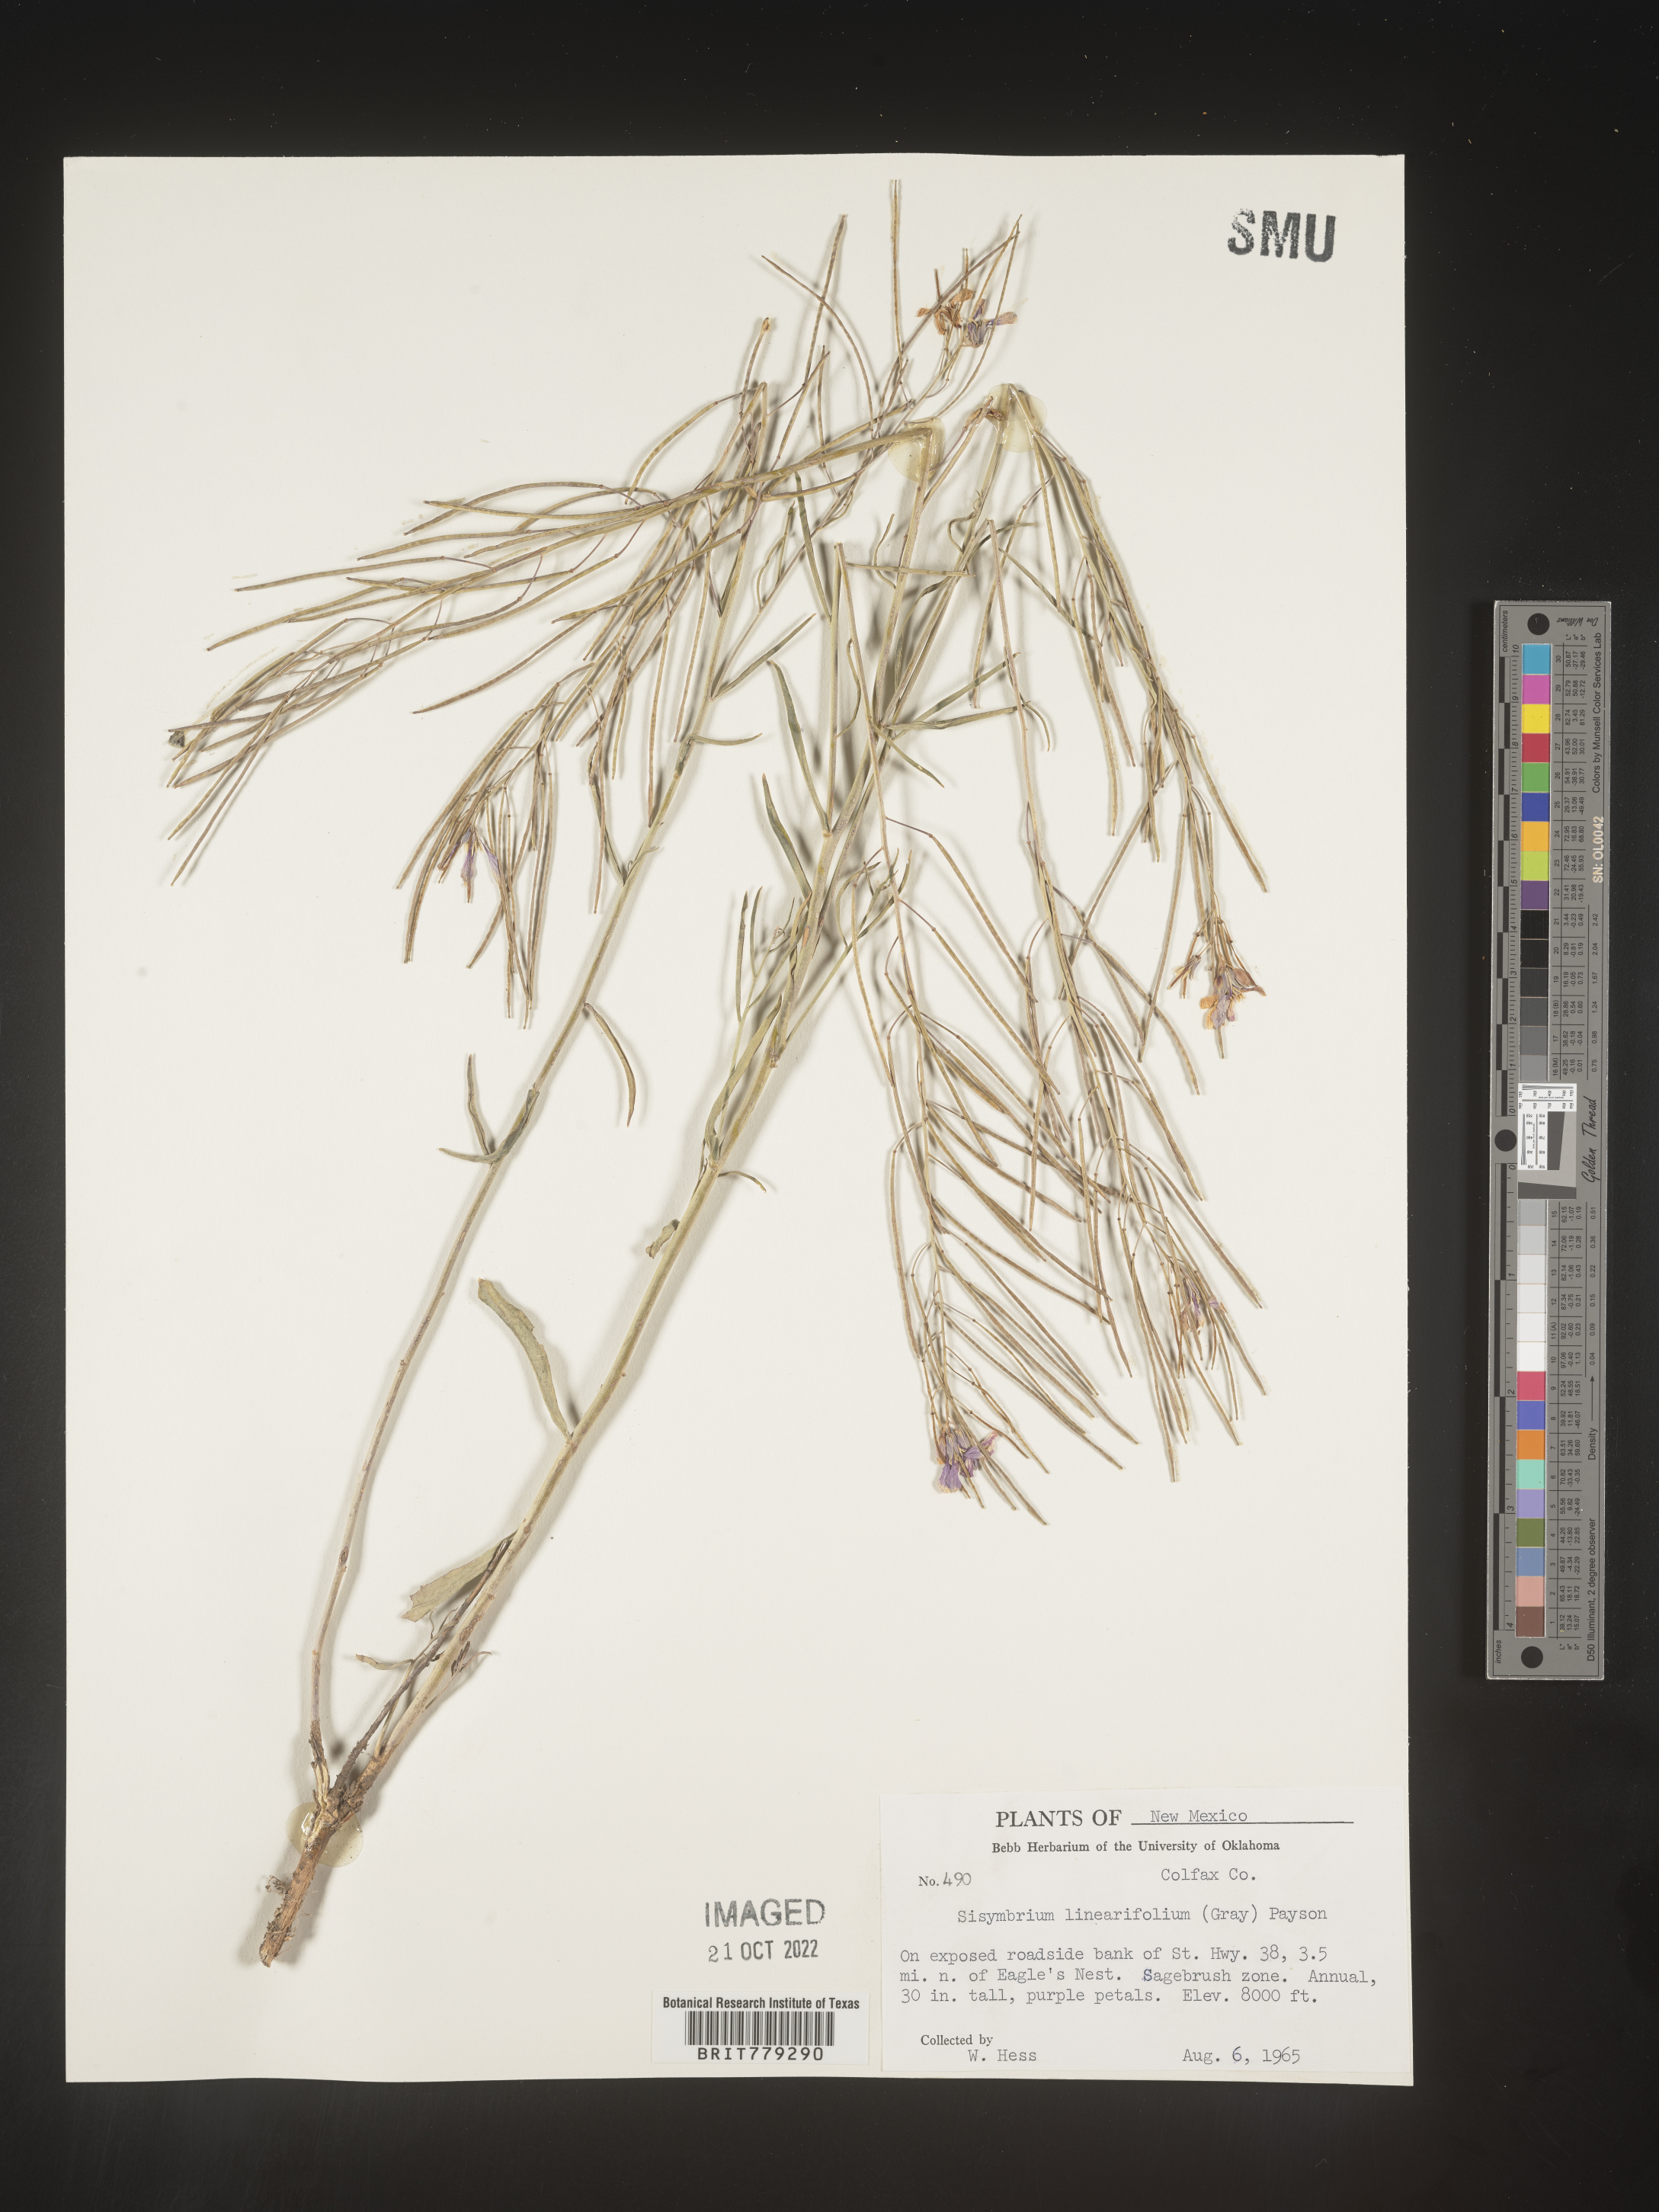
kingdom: Plantae
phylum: Tracheophyta
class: Magnoliopsida
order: Brassicales
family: Brassicaceae
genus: Sisymbrium
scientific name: Sisymbrium
